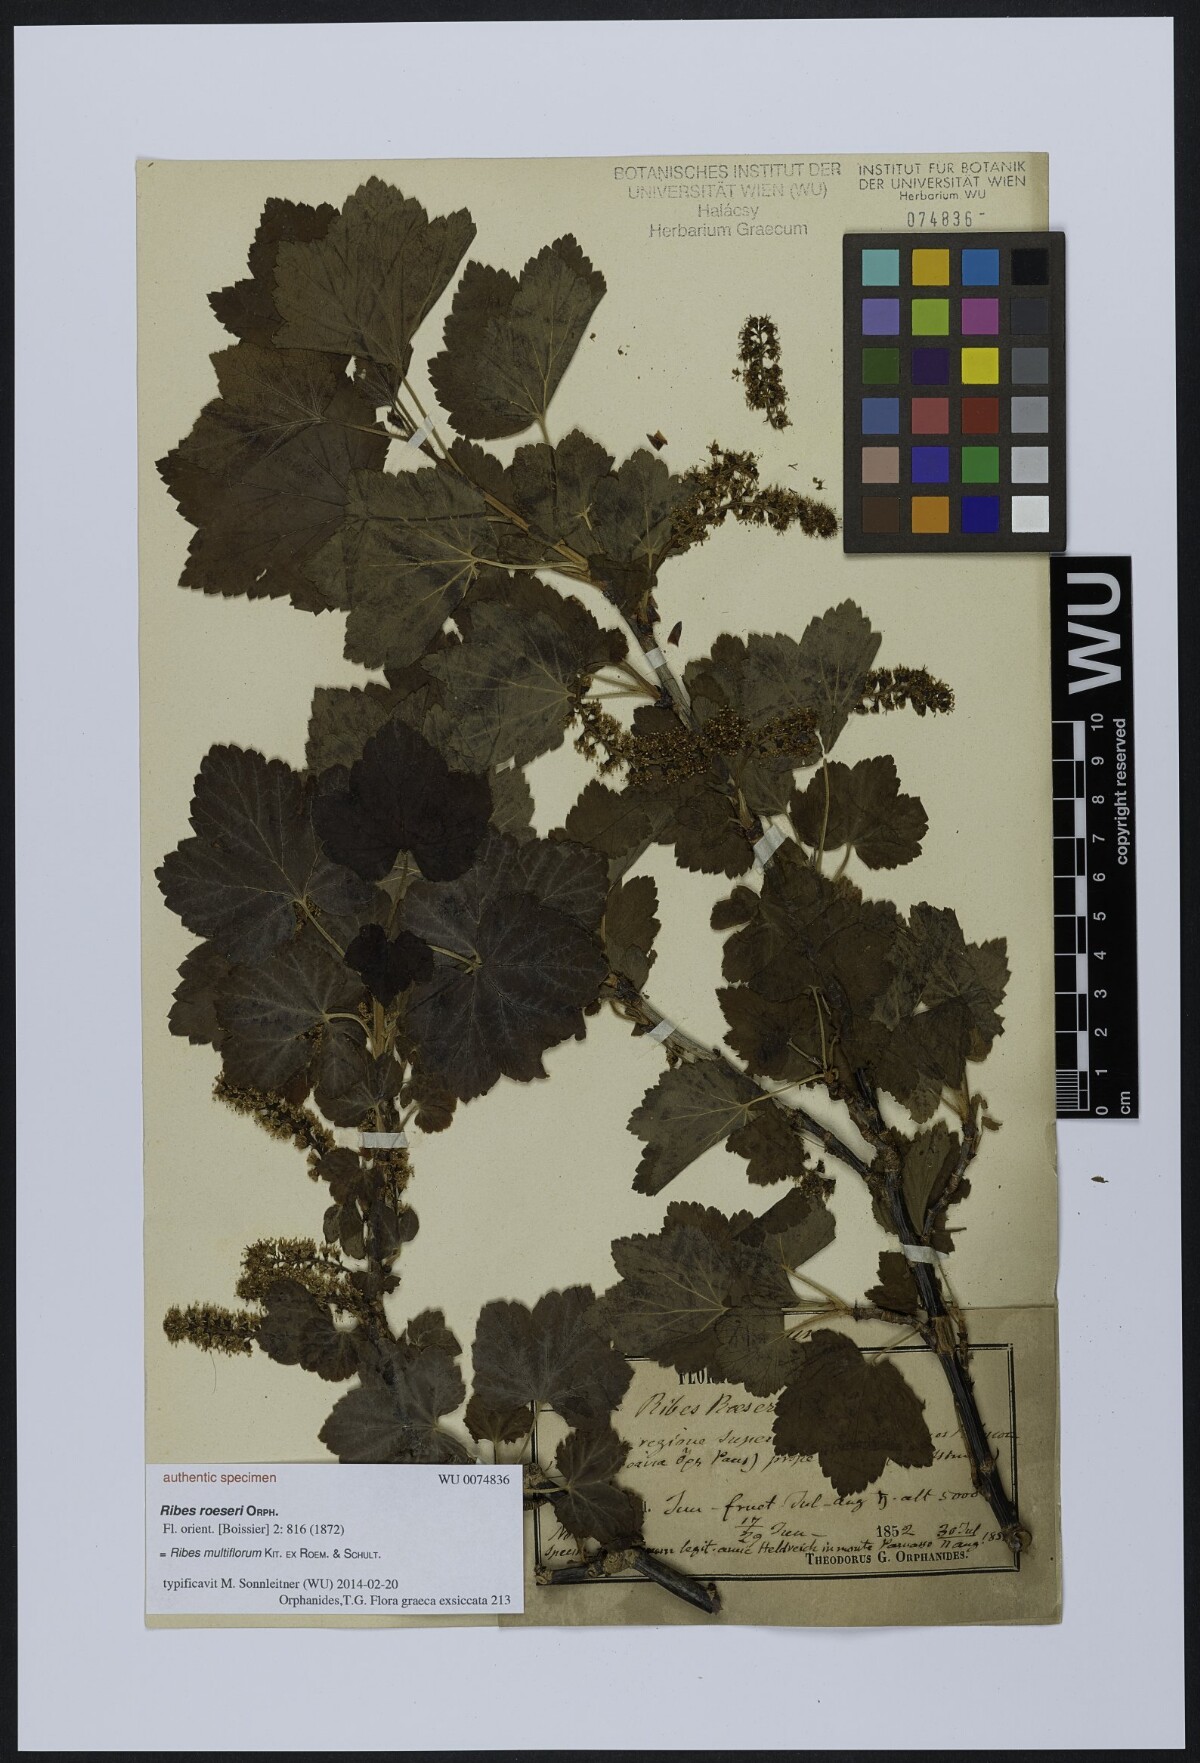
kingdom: Plantae
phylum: Tracheophyta
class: Magnoliopsida
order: Saxifragales
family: Grossulariaceae
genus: Ribes
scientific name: Ribes multiflorum
